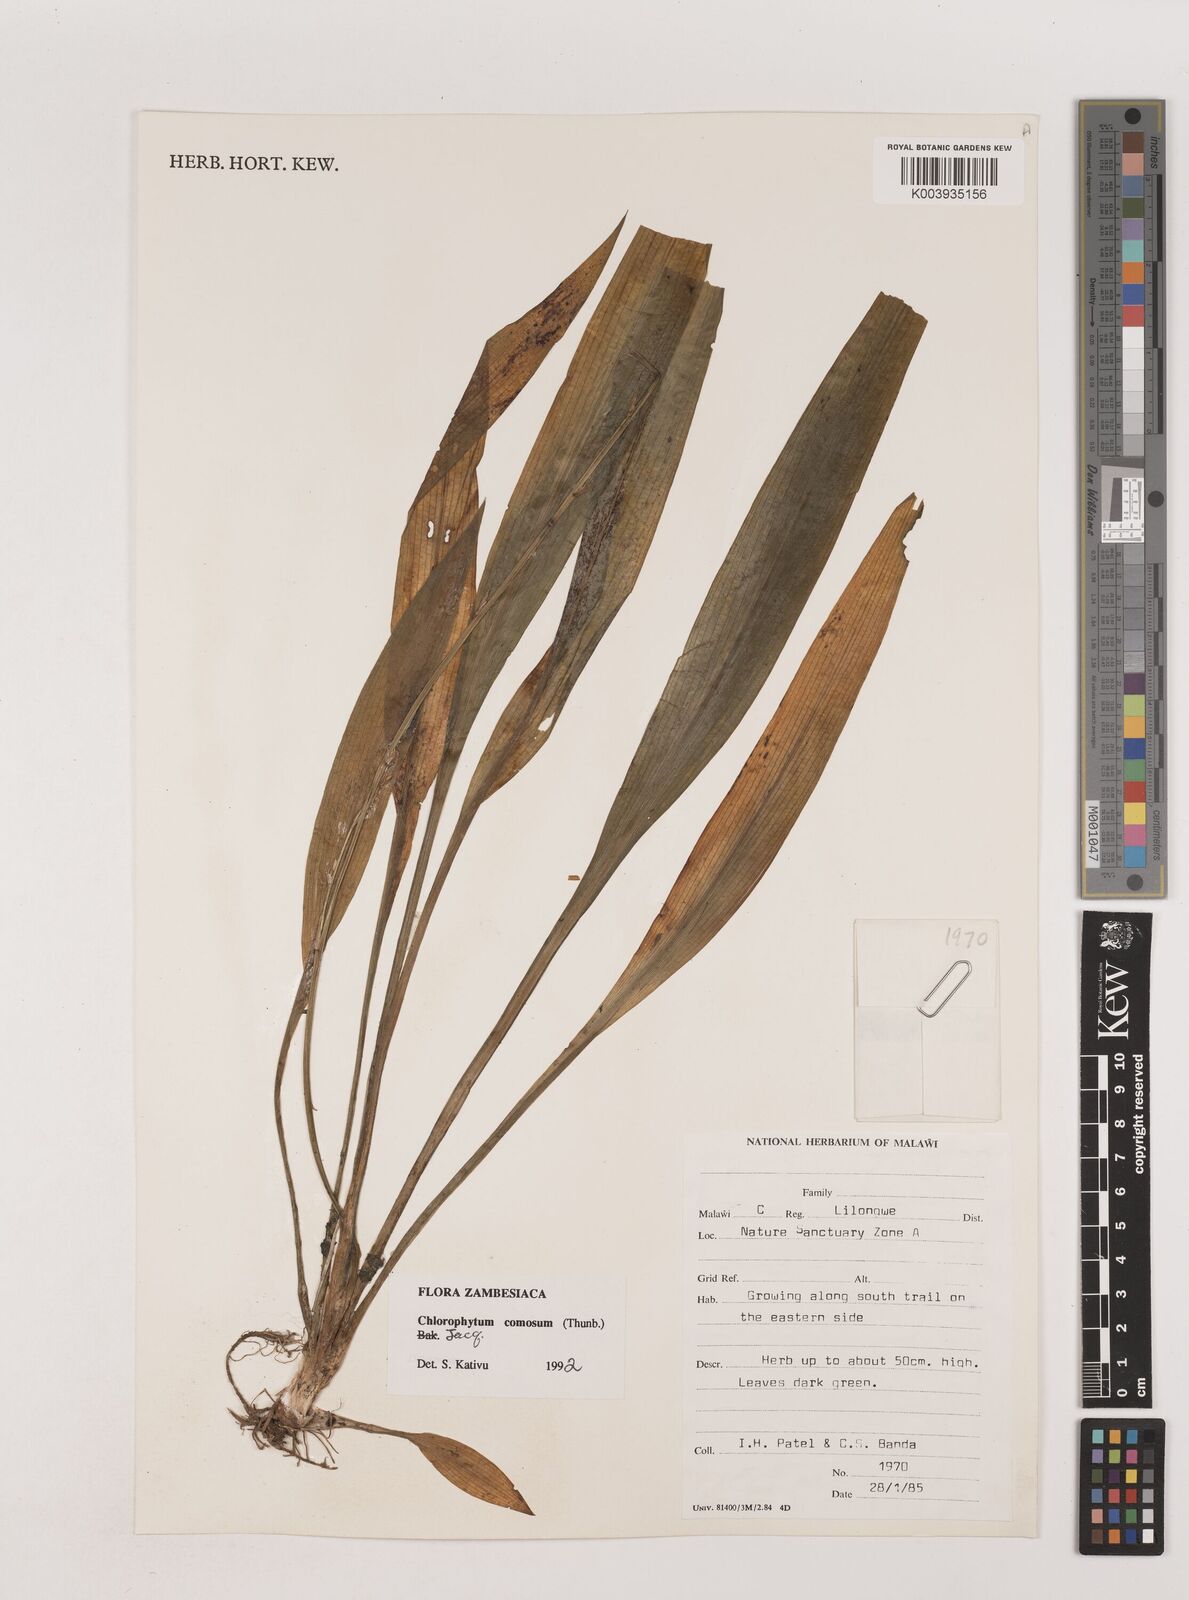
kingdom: Plantae
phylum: Tracheophyta
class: Liliopsida
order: Asparagales
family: Asparagaceae
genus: Chlorophytum
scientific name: Chlorophytum comosum
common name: Spider plant
